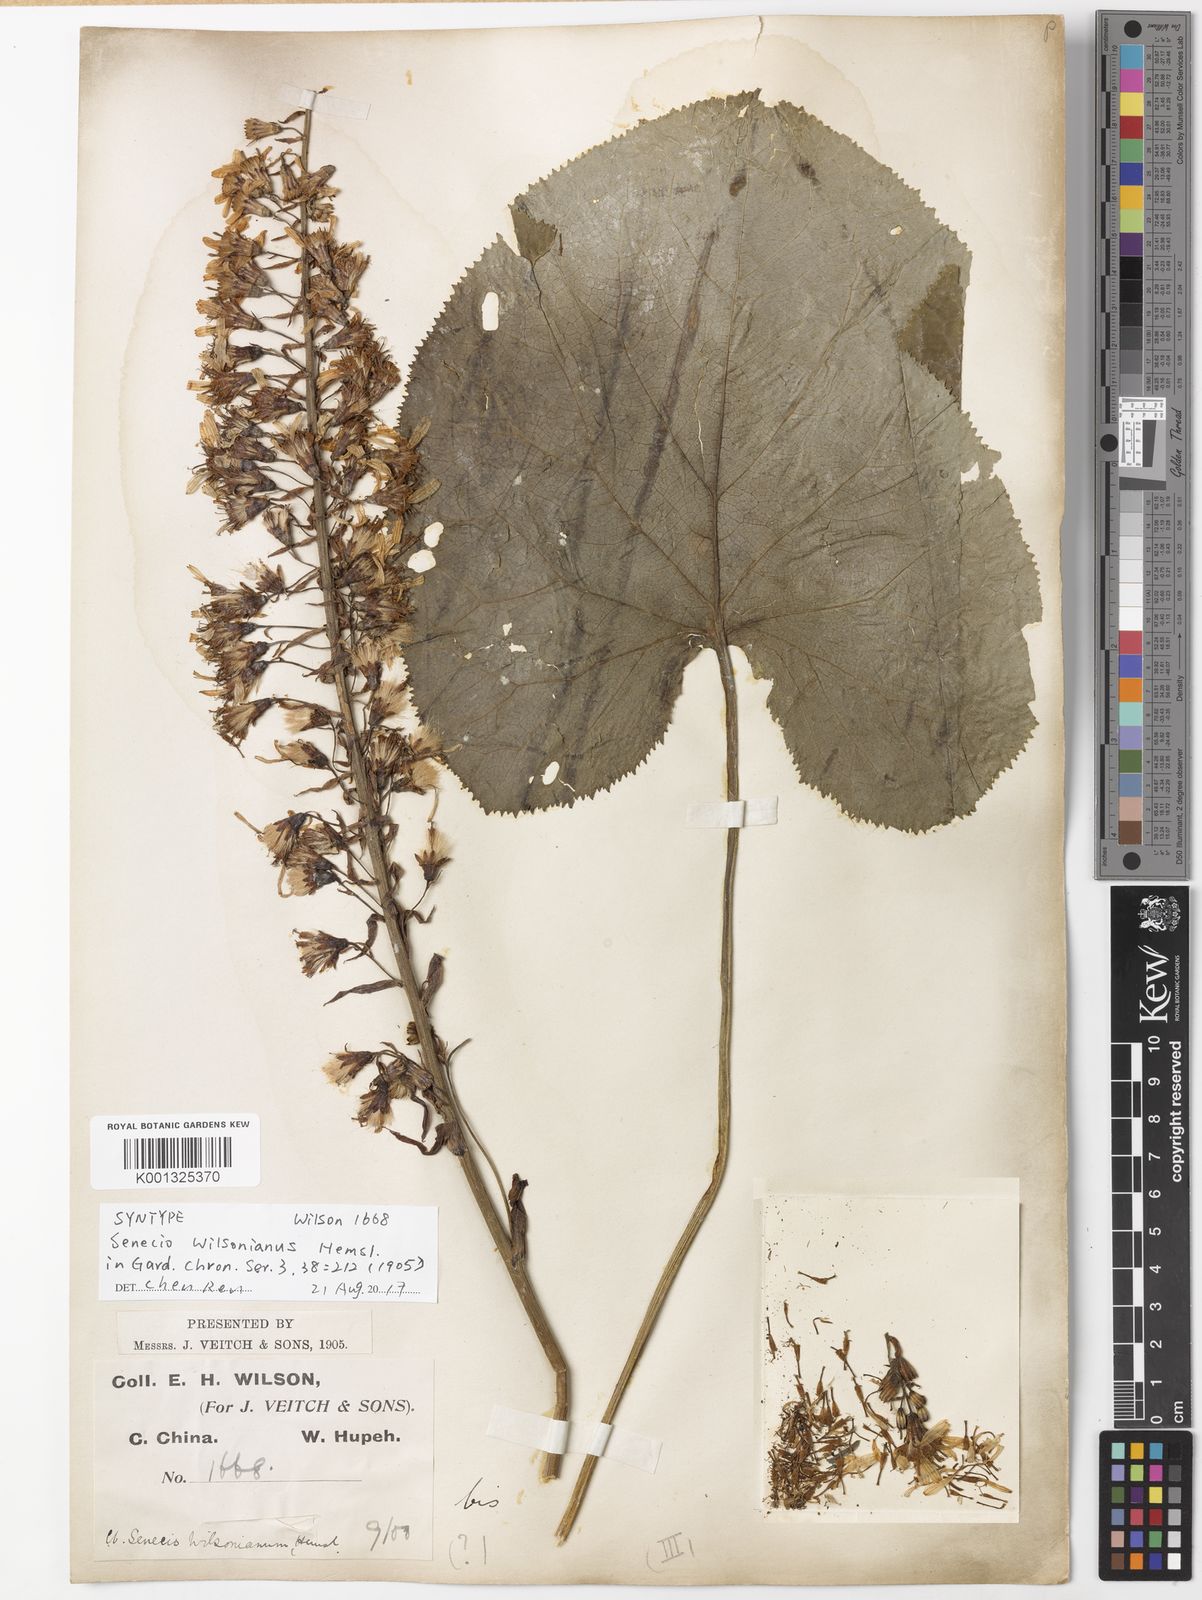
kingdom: Plantae
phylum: Tracheophyta
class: Magnoliopsida
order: Asterales
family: Asteraceae
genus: Ligularia
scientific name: Ligularia wilsoniana
